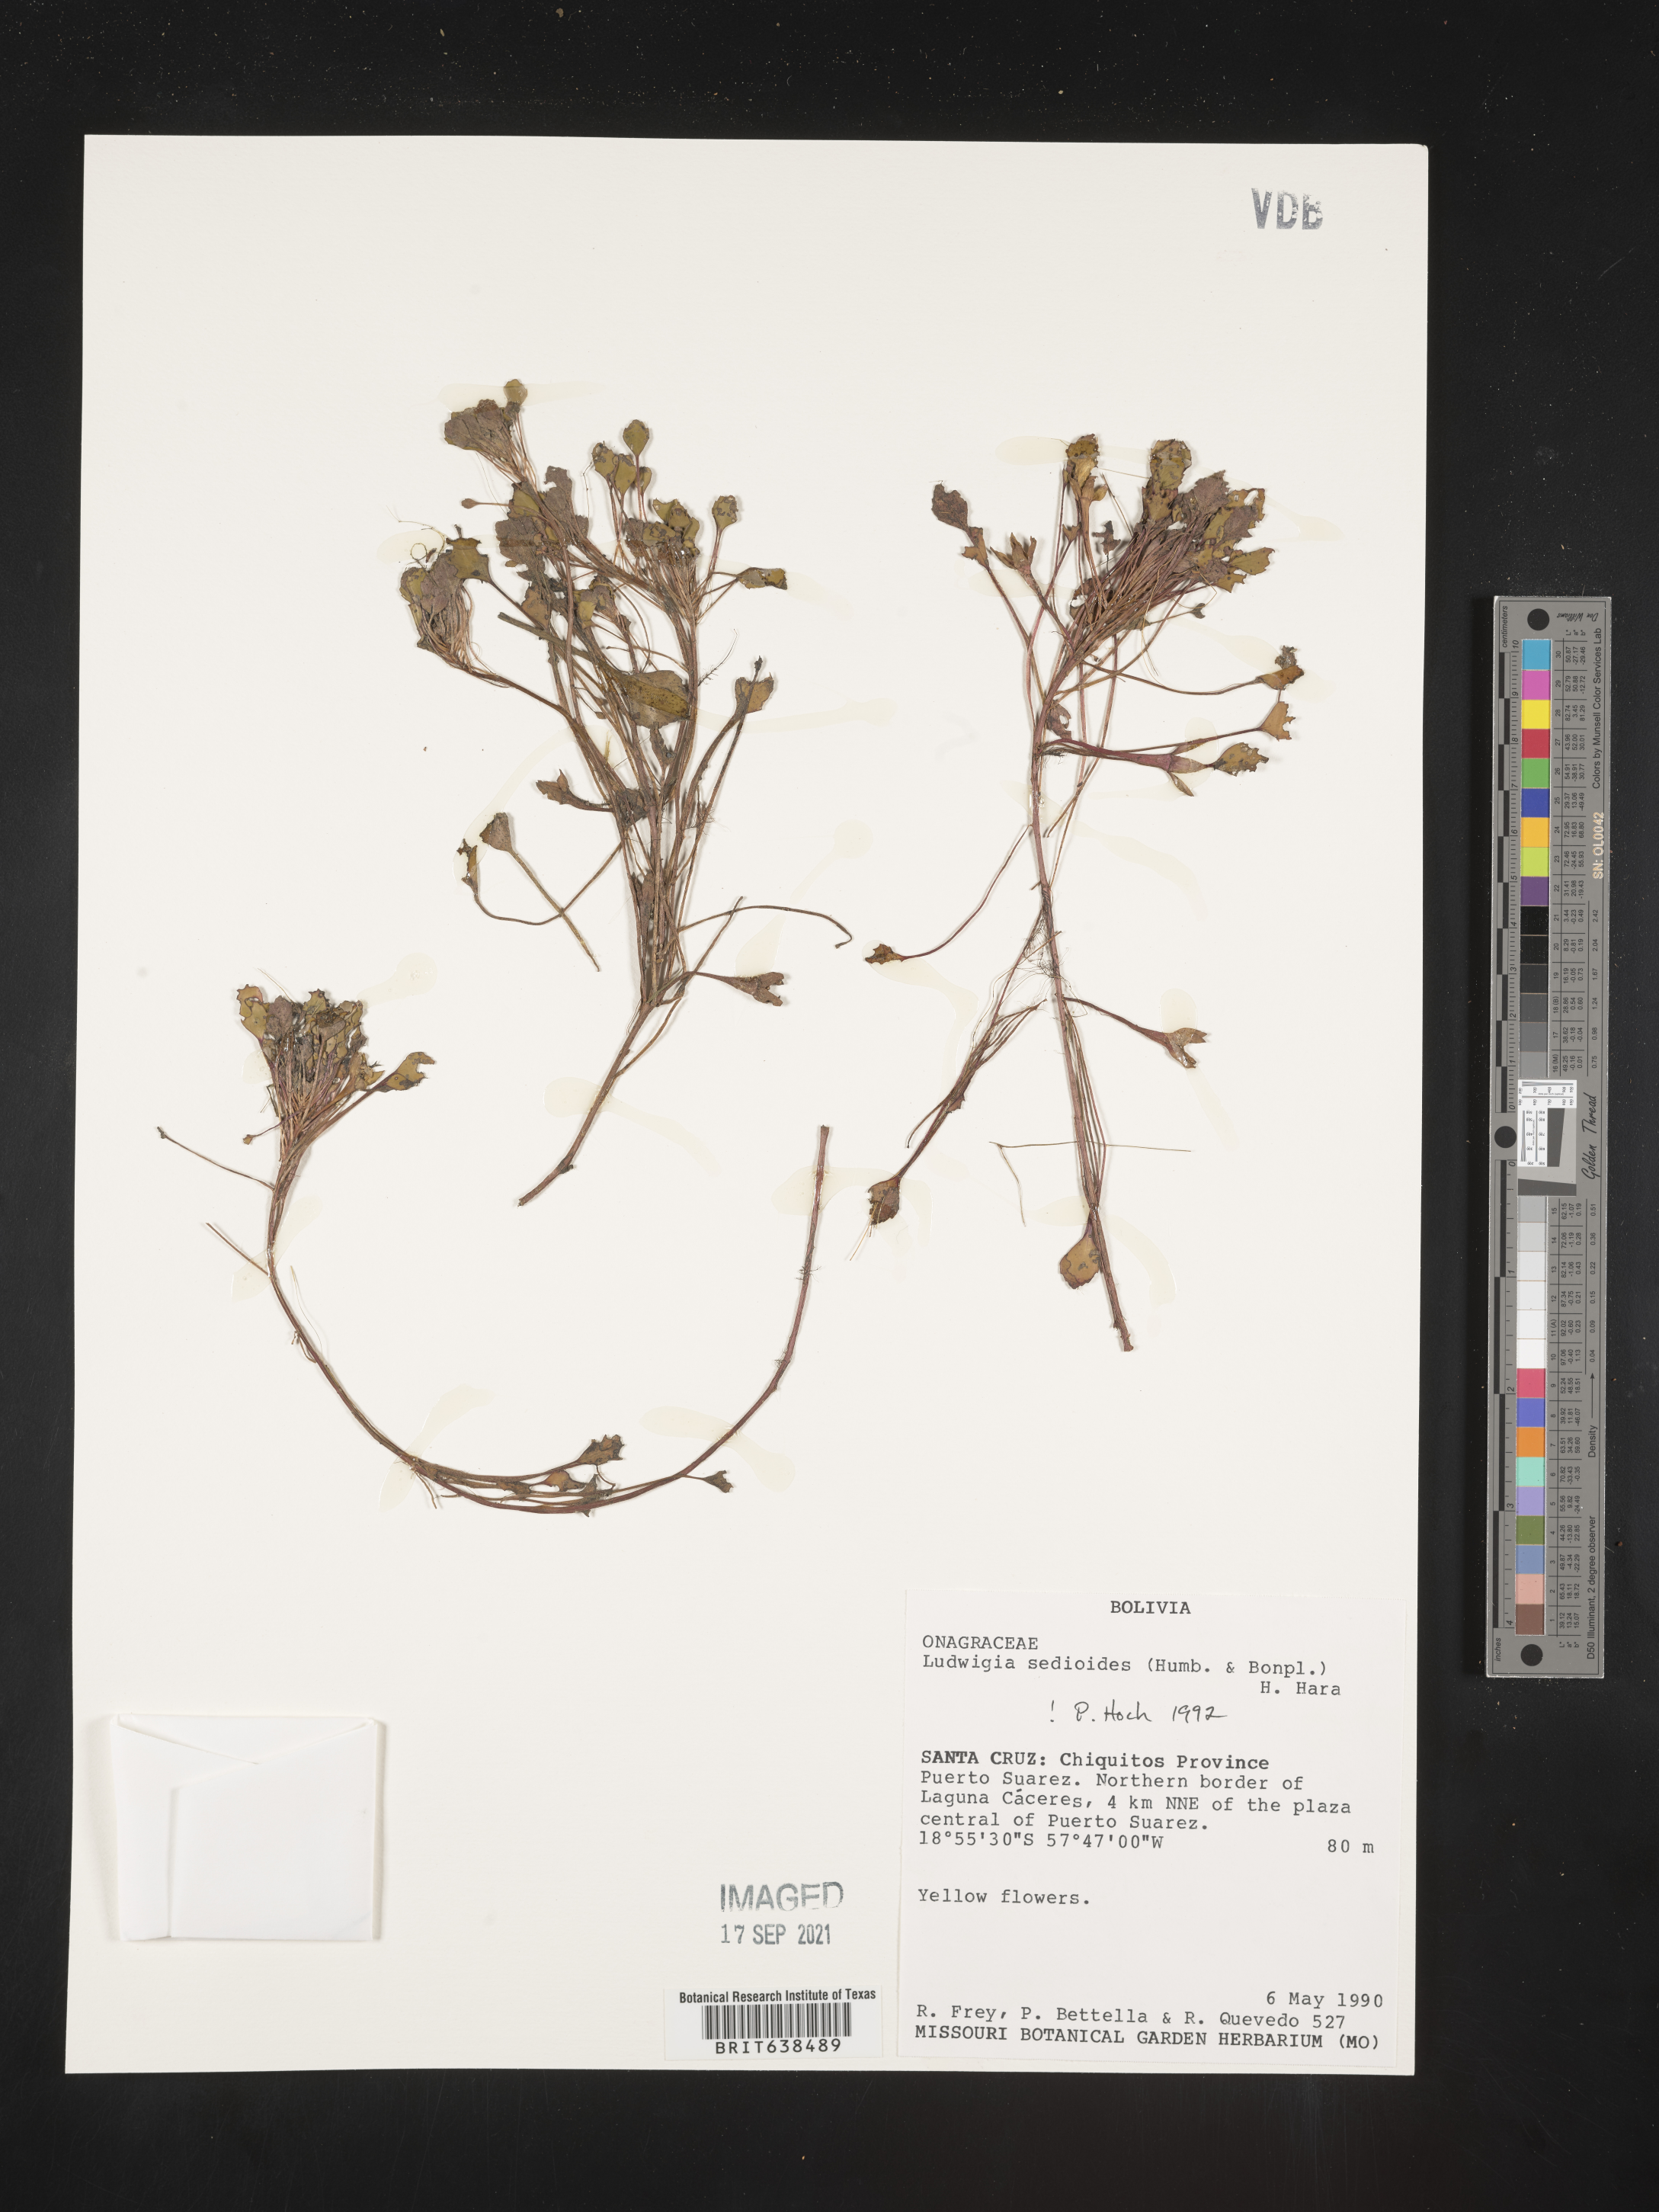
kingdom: Plantae
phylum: Tracheophyta
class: Magnoliopsida
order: Myrtales
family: Onagraceae
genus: Ludwigia
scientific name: Ludwigia
